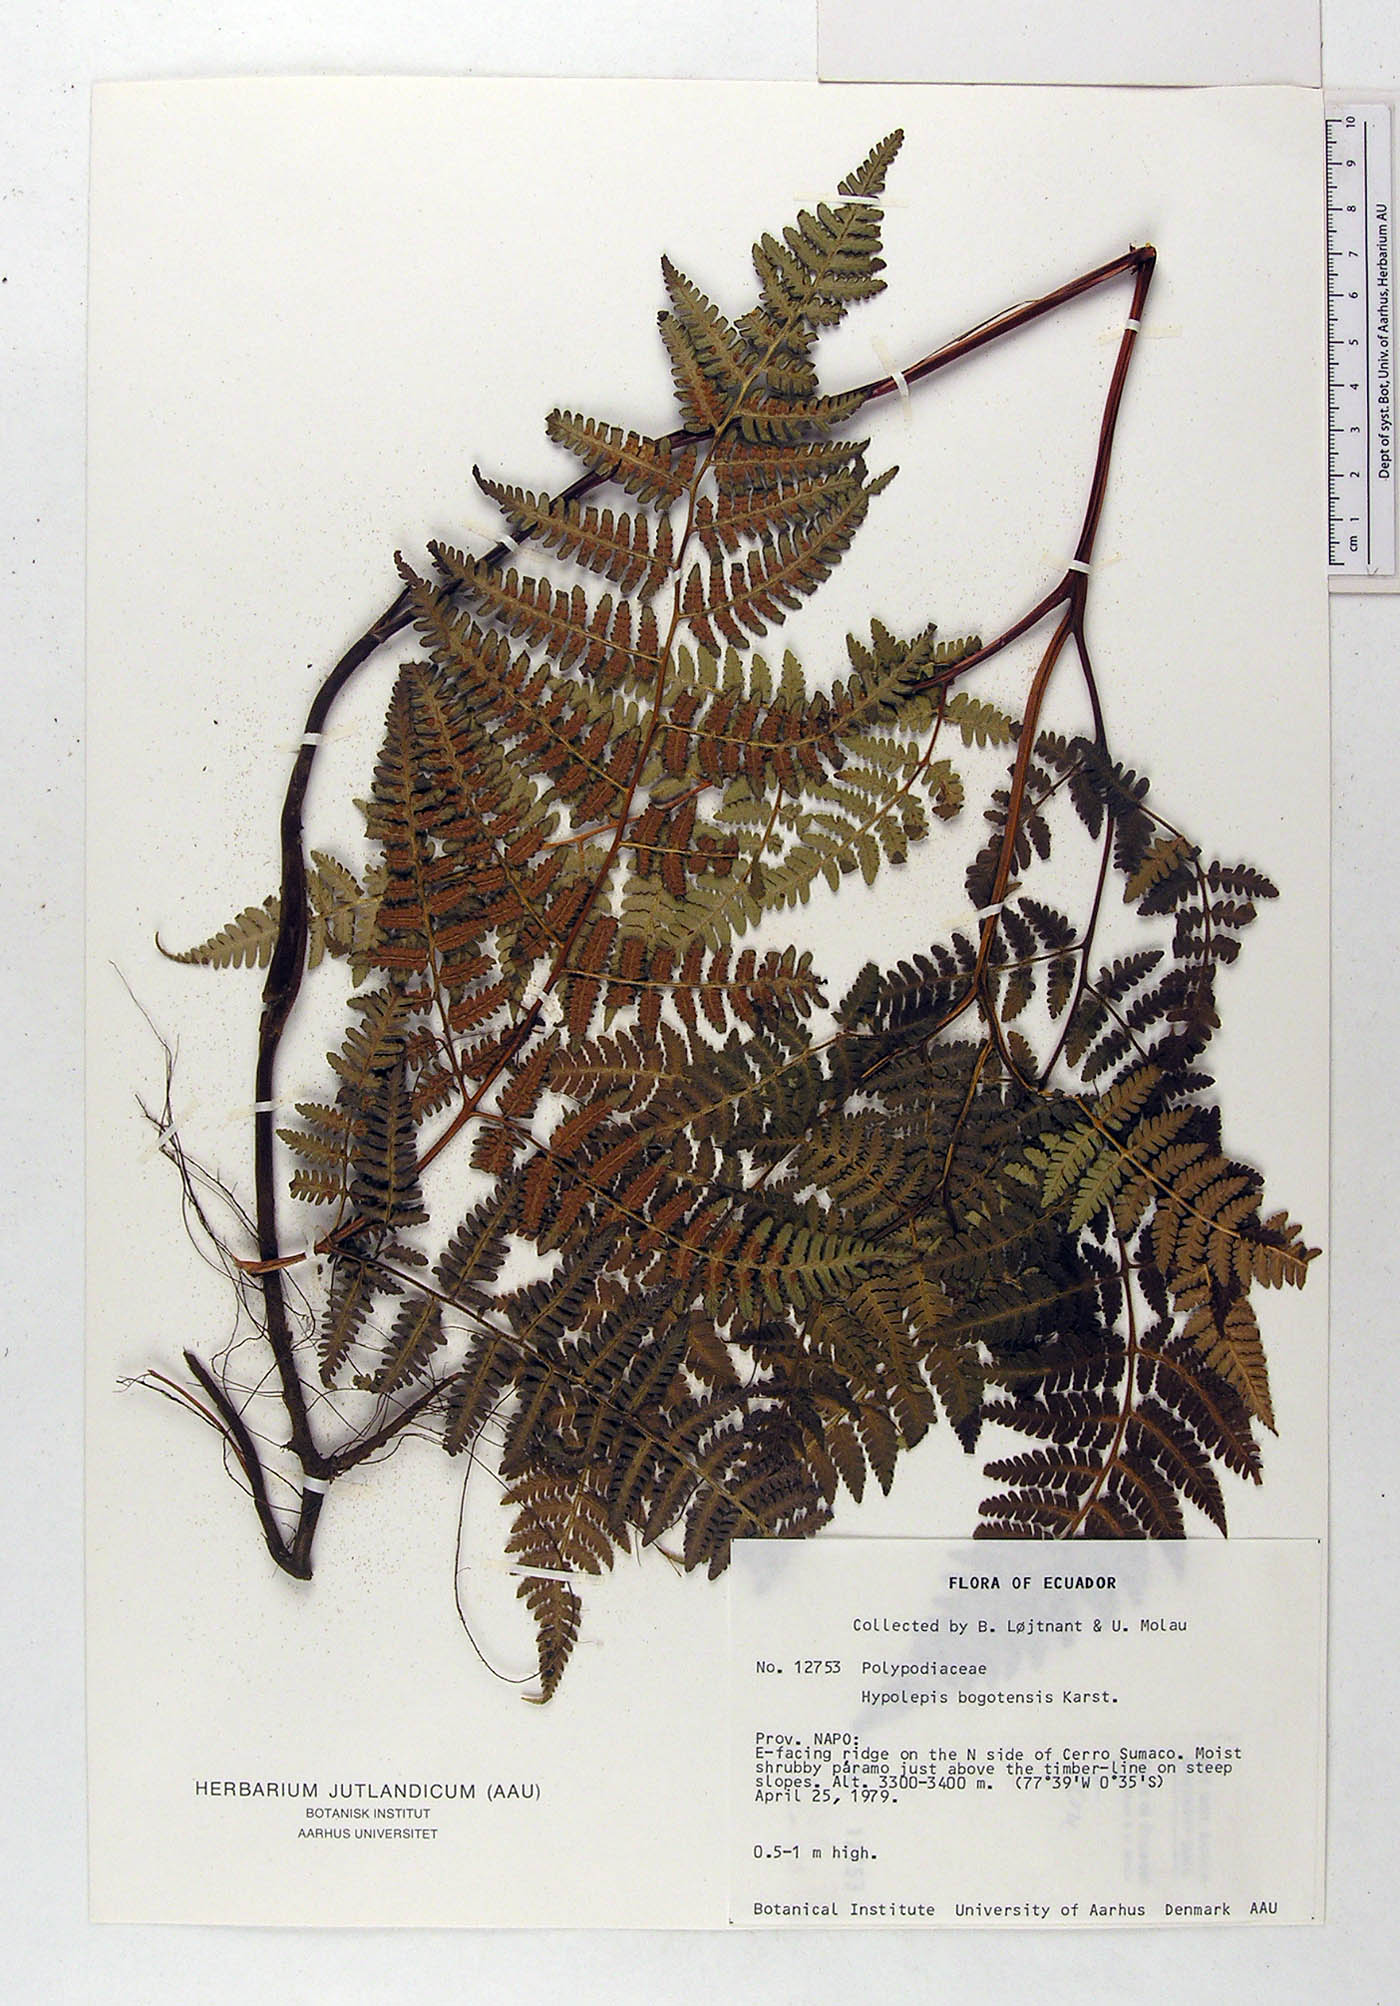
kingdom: Plantae
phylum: Tracheophyta
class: Polypodiopsida
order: Polypodiales
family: Dennstaedtiaceae
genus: Hypolepis
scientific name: Hypolepis bogotensis
